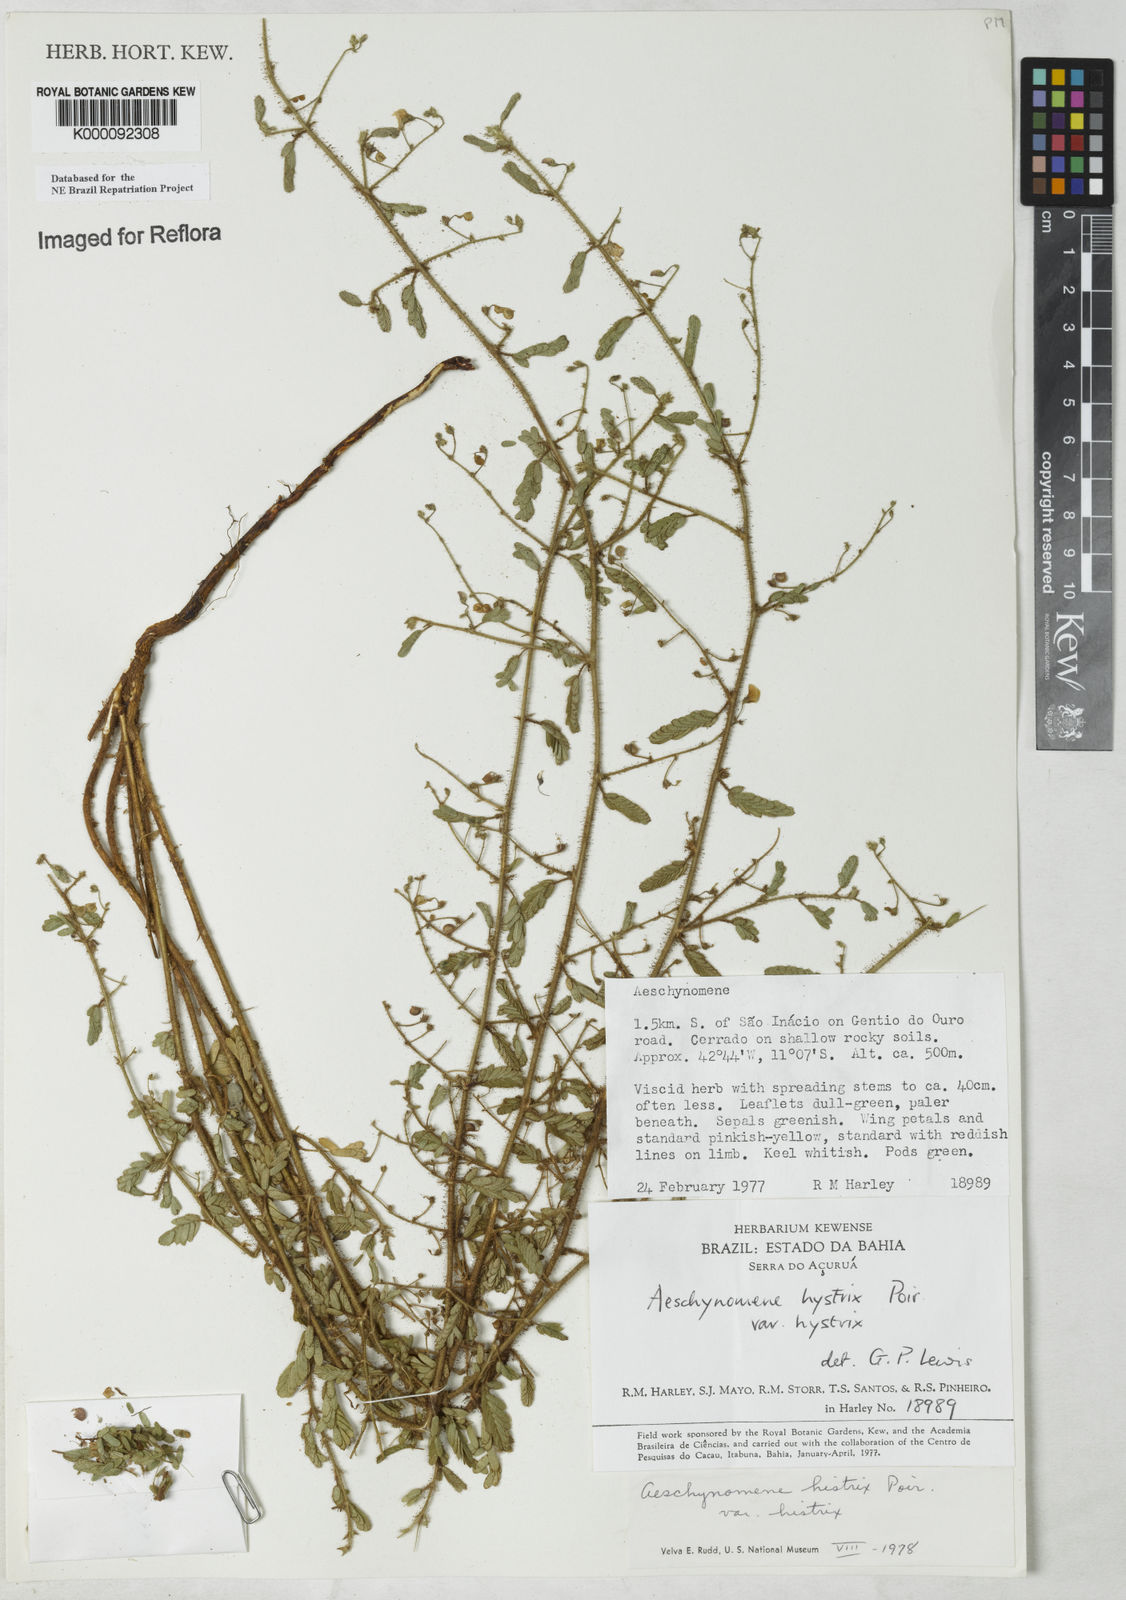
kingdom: Plantae
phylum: Tracheophyta
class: Magnoliopsida
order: Fabales
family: Fabaceae
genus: Ctenodon
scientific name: Ctenodon histrix
